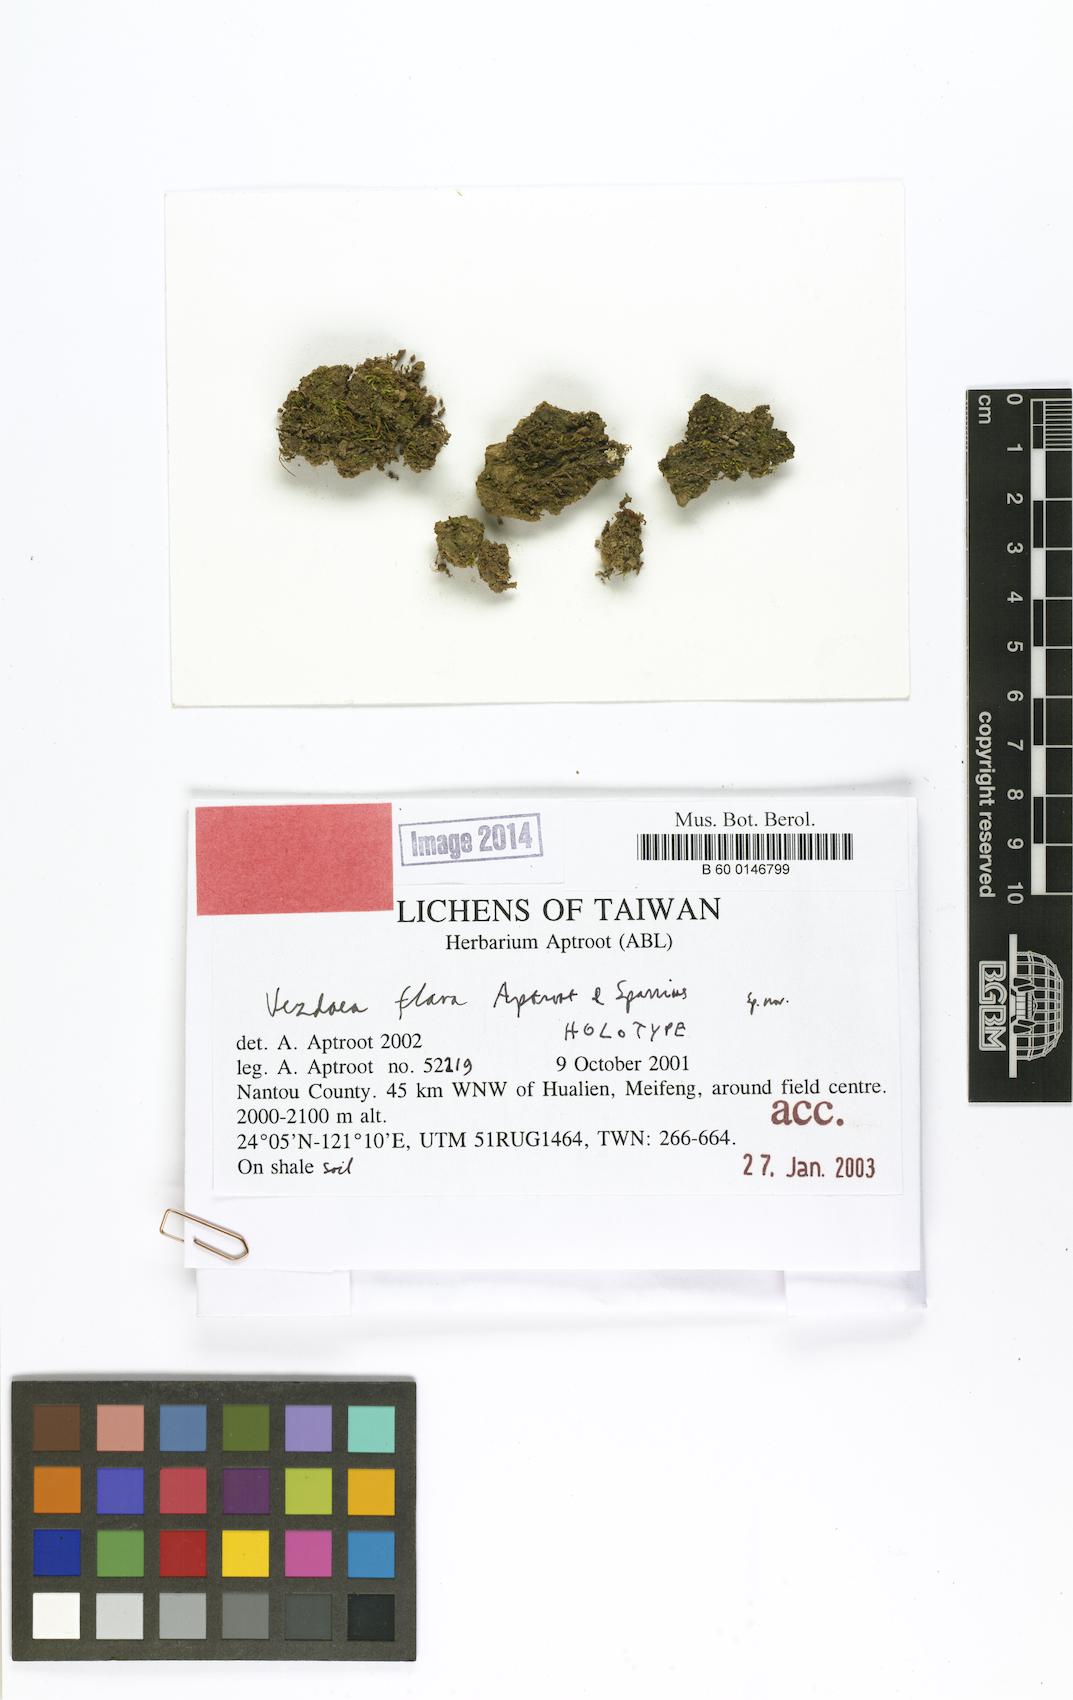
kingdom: Fungi
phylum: Ascomycota
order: Vezdaeales
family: Vezdaeaceae
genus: Vezdaea
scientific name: Vezdaea flava
